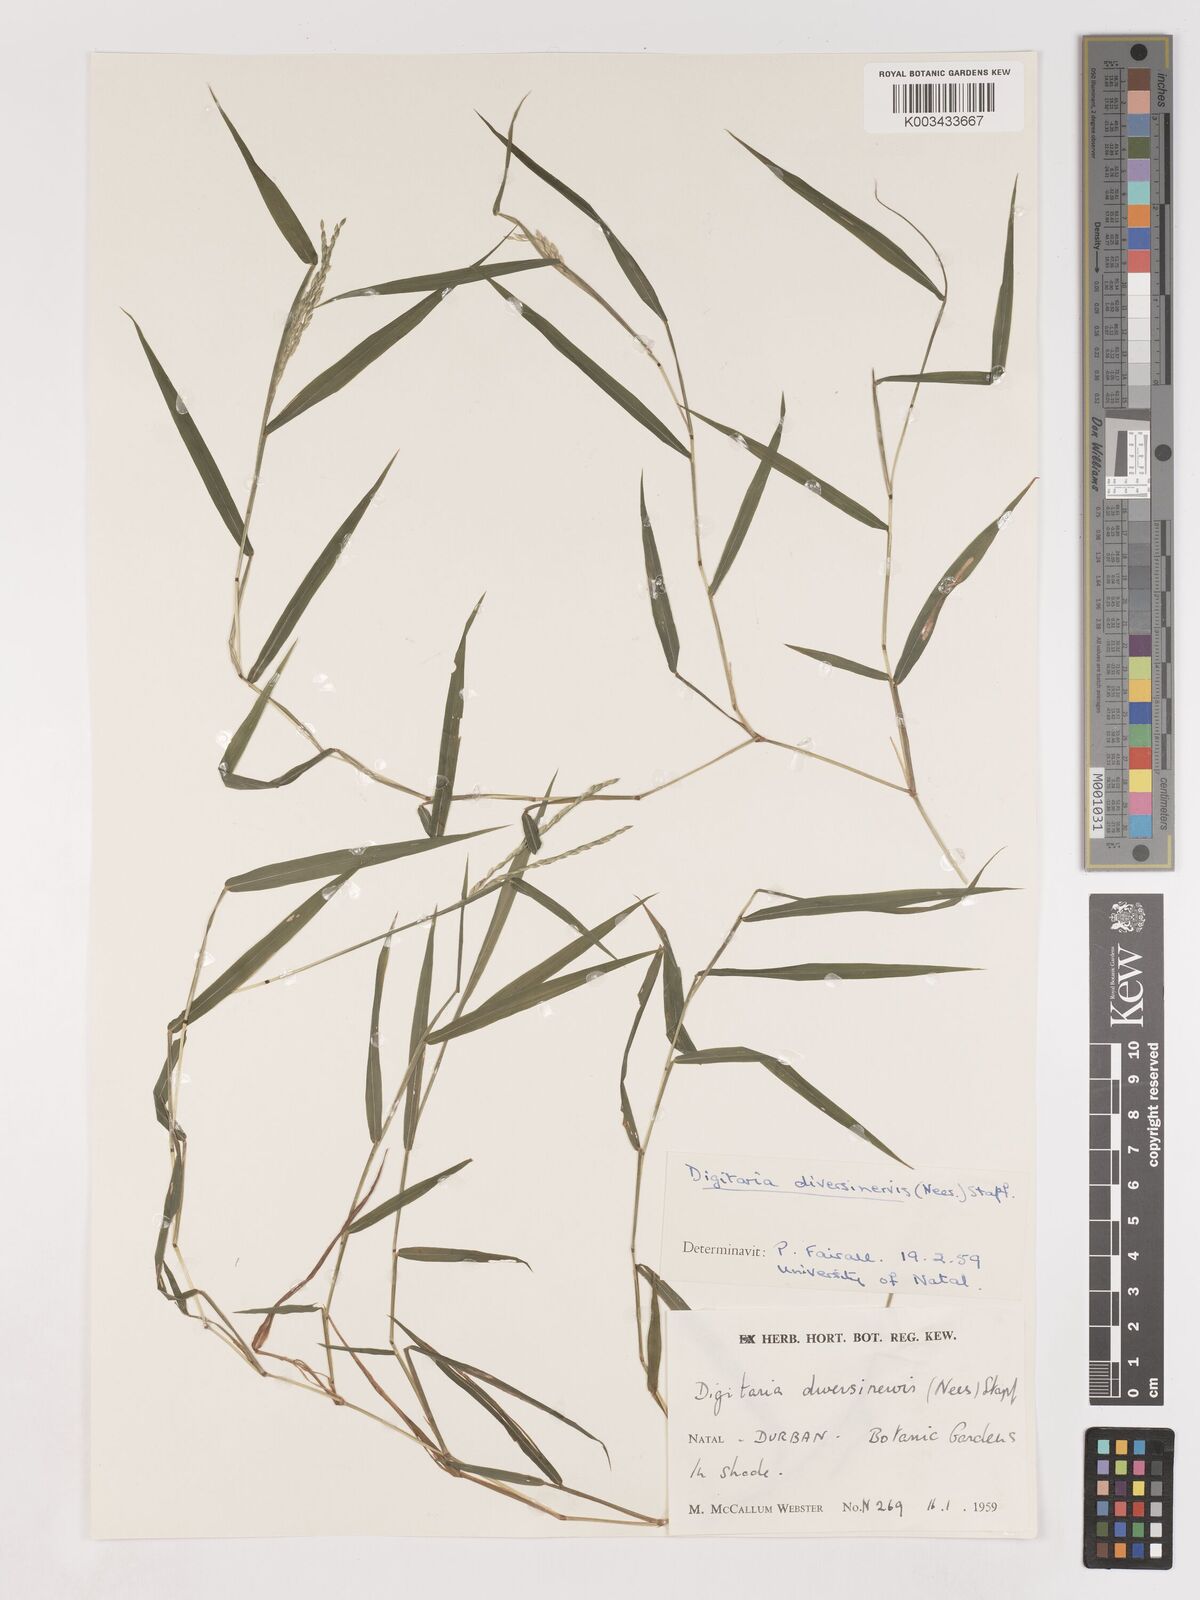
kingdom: Plantae
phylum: Tracheophyta
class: Liliopsida
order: Poales
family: Poaceae
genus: Digitaria
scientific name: Digitaria diversinervis
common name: Richmond finger grass
